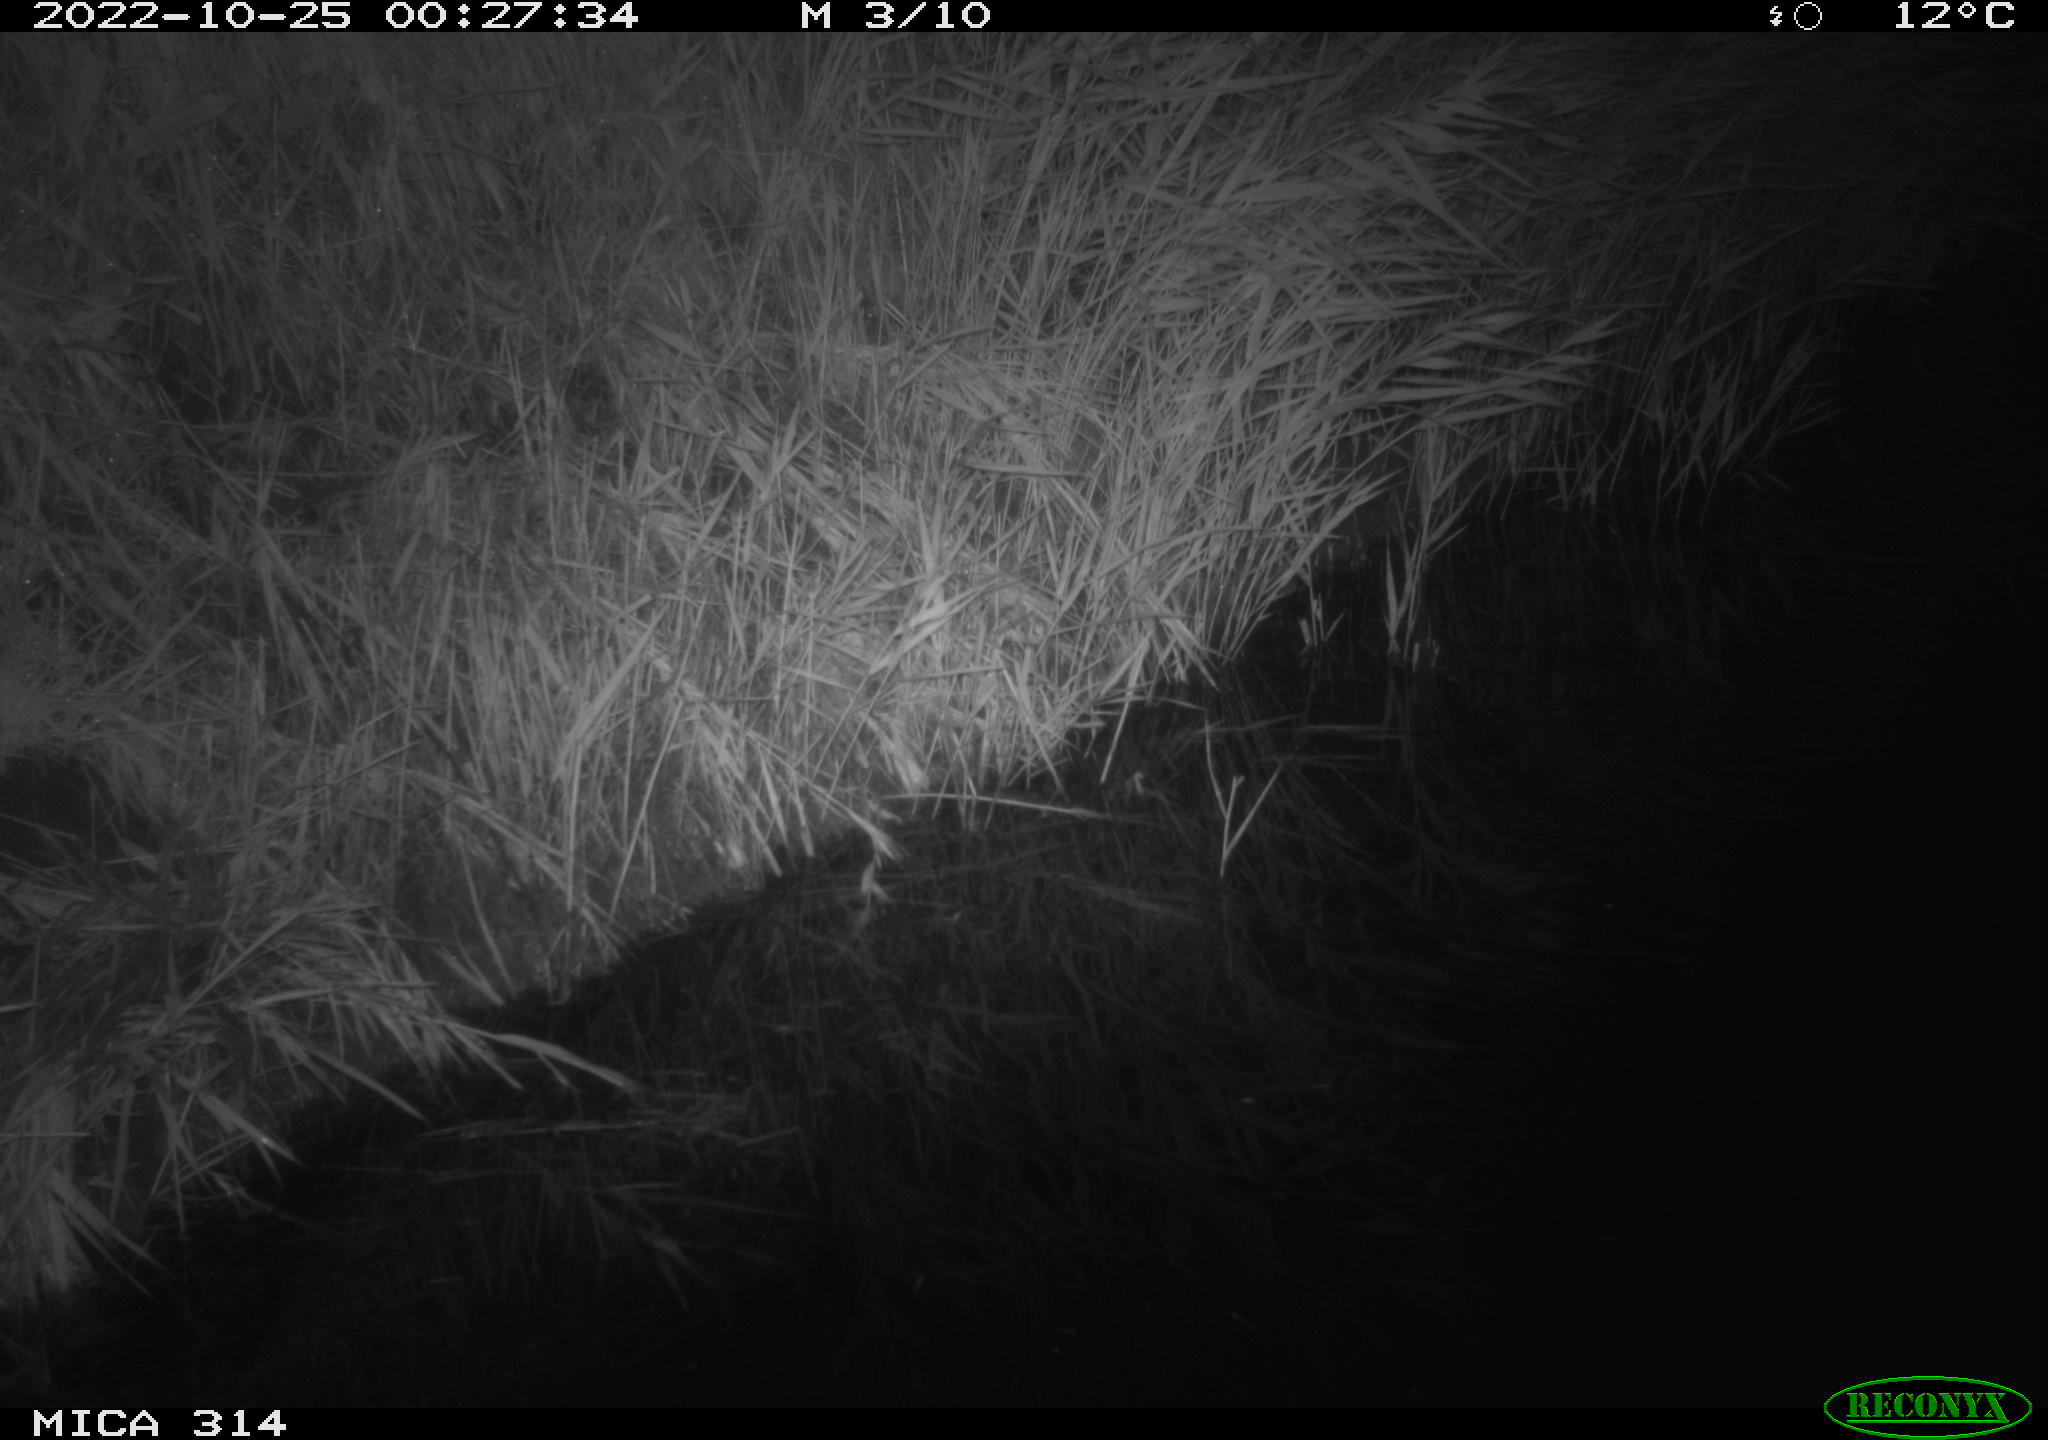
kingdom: Animalia
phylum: Chordata
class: Aves
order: Anseriformes
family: Anatidae
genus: Mareca
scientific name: Mareca strepera
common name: Gadwall
